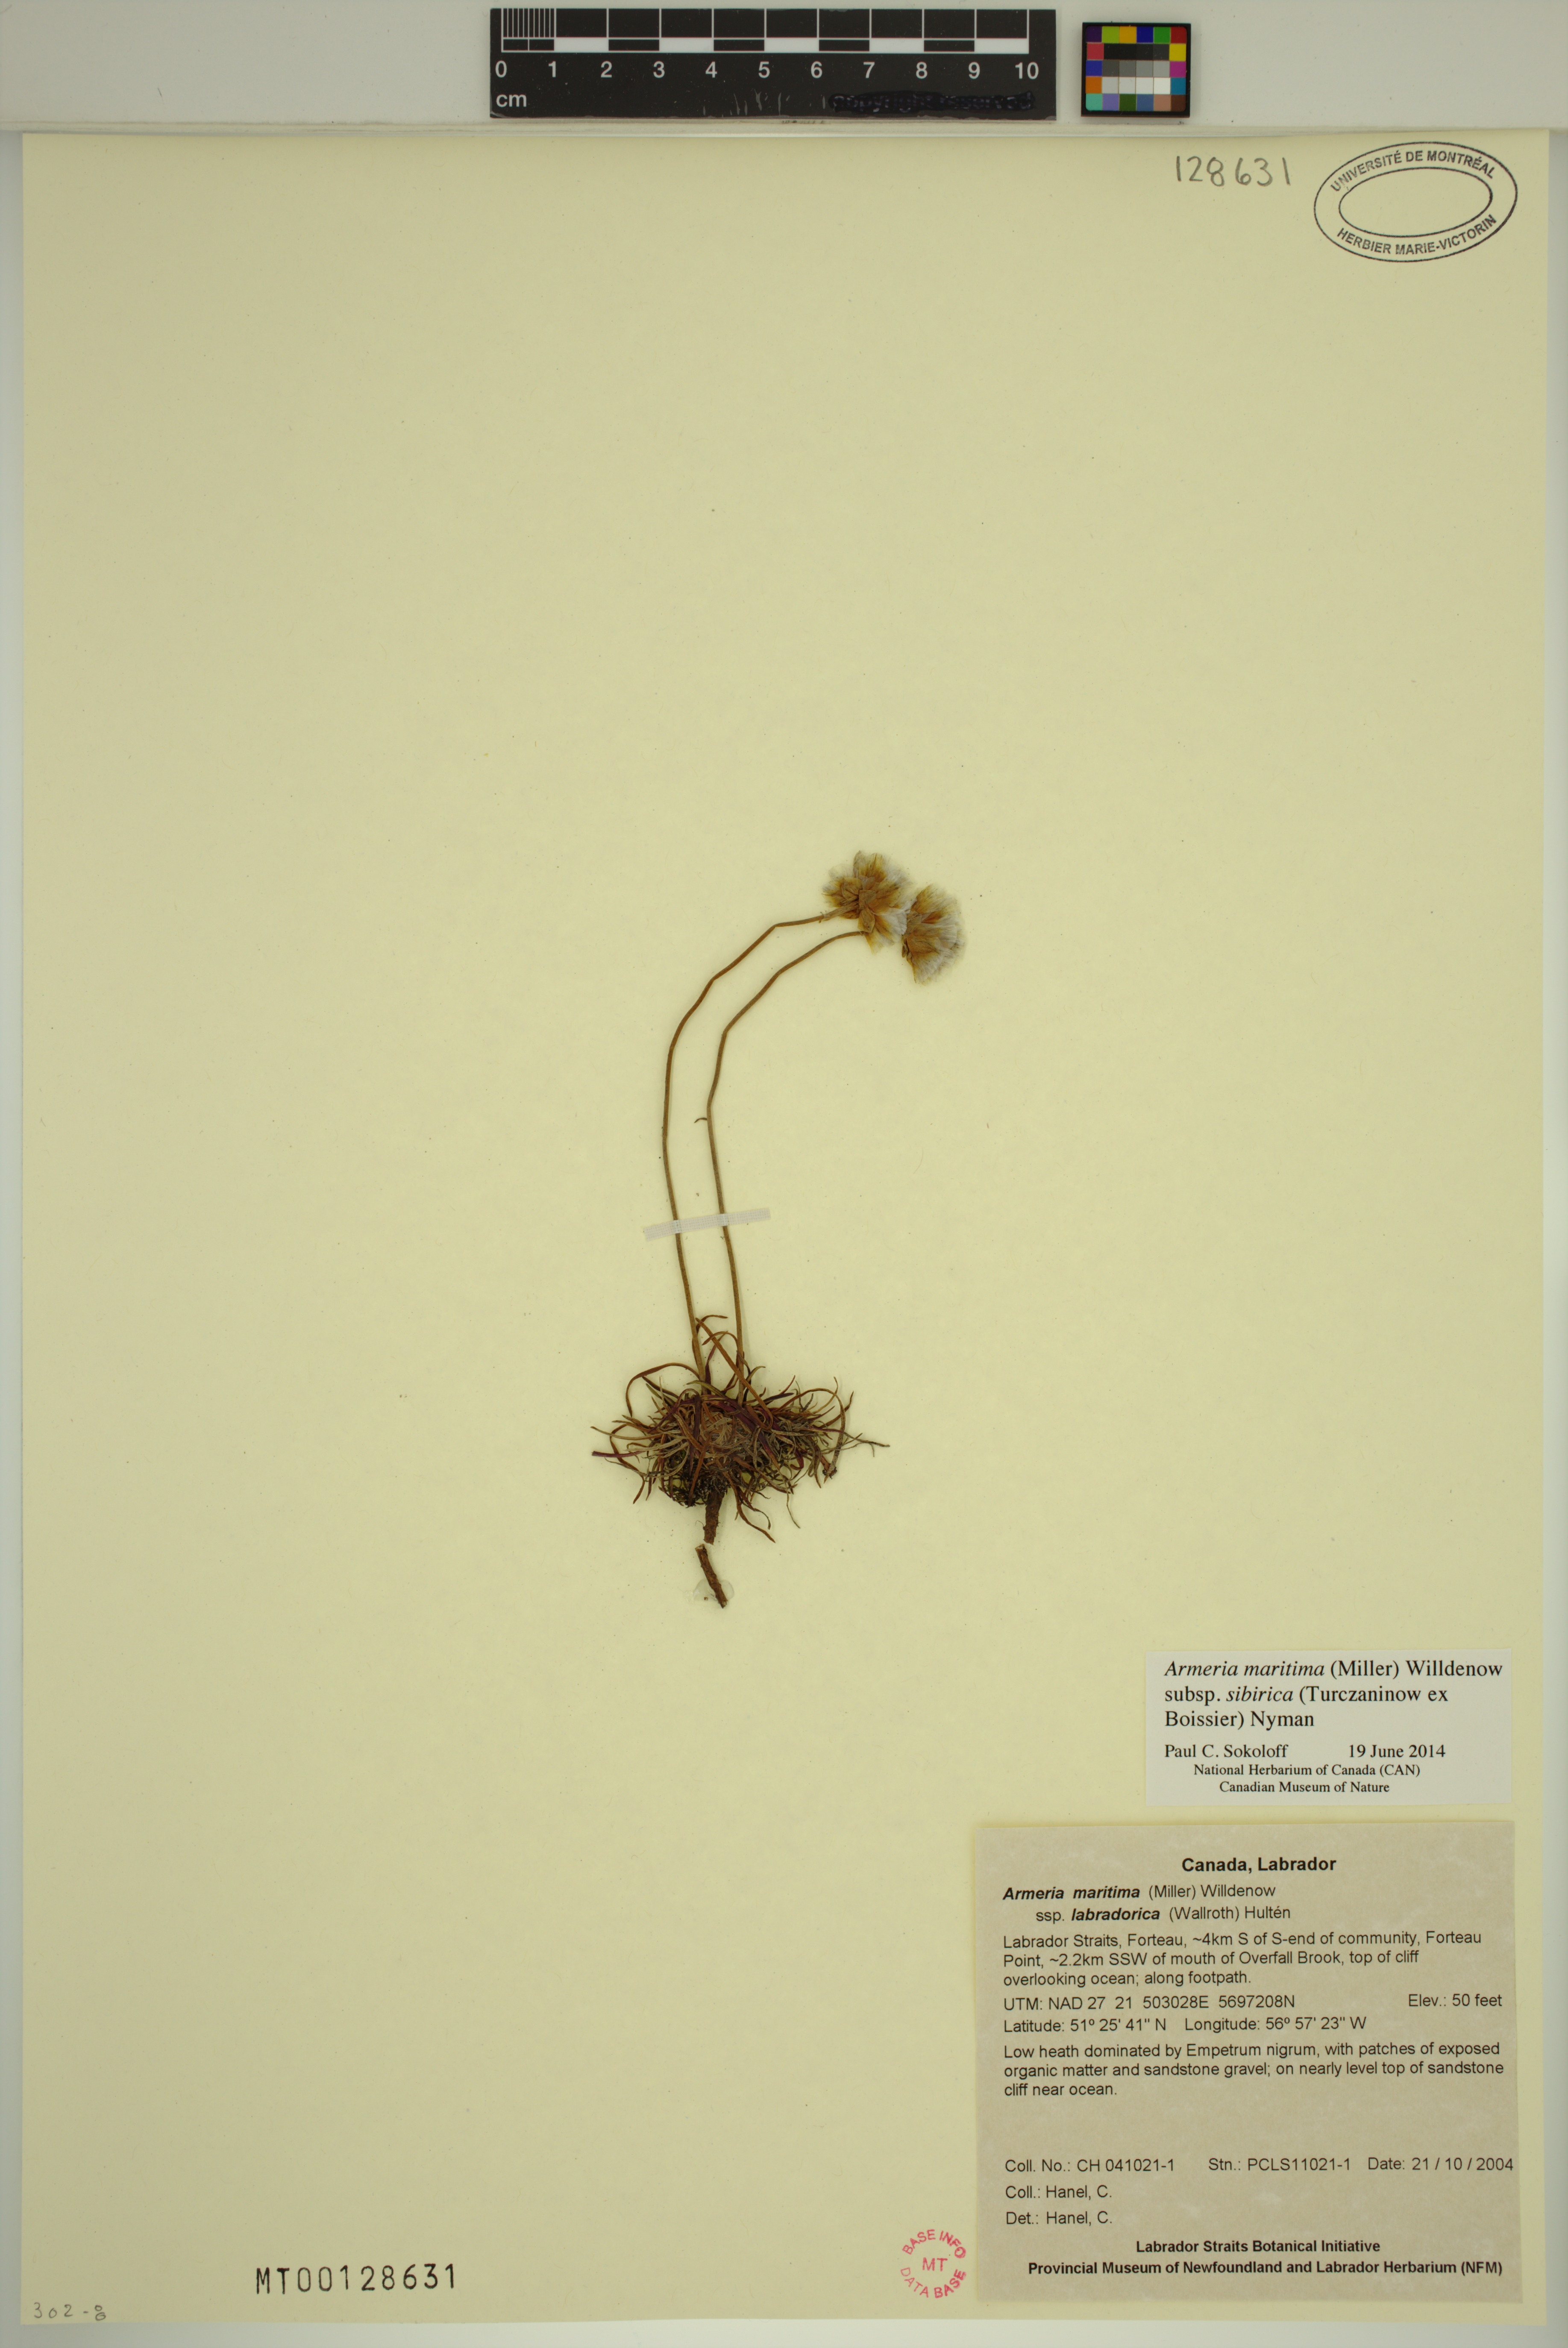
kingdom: Plantae
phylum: Tracheophyta
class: Magnoliopsida
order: Caryophyllales
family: Plumbaginaceae
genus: Armeria
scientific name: Armeria maritima
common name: Thrift
